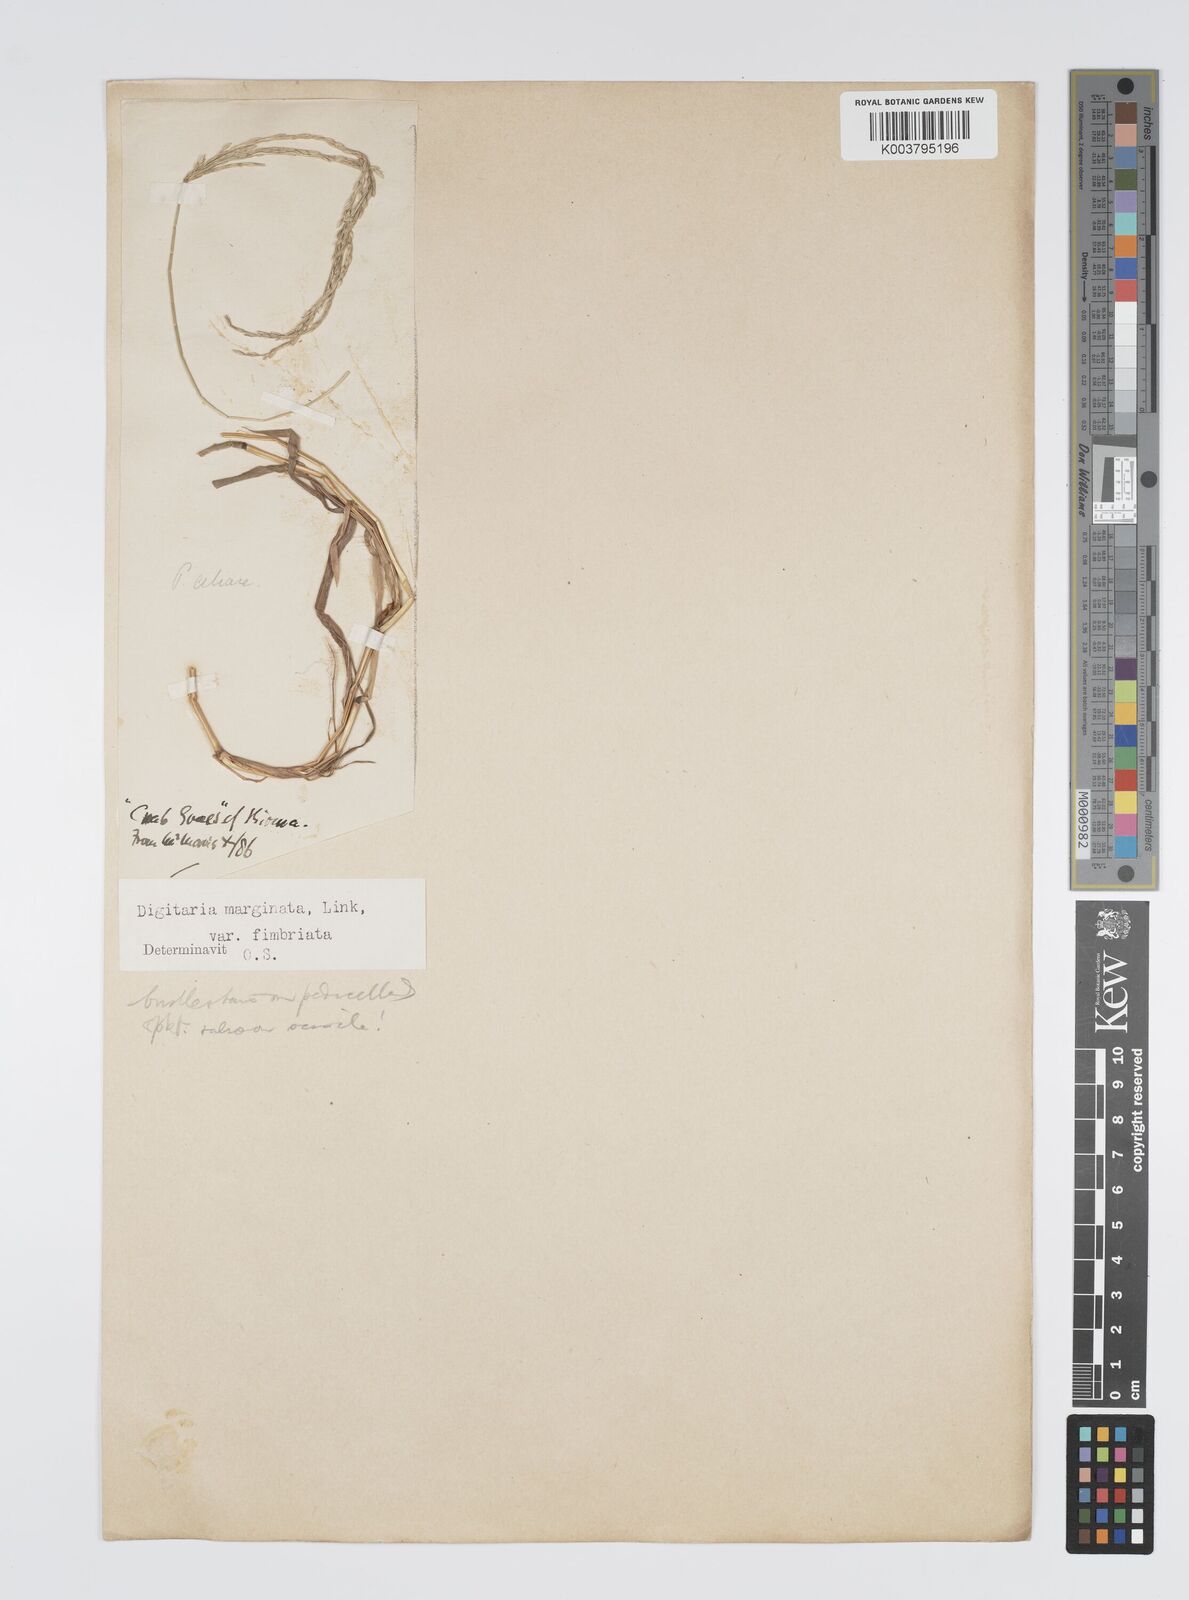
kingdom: Plantae
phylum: Tracheophyta
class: Liliopsida
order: Poales
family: Poaceae
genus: Digitaria
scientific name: Digitaria ciliaris
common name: Tropical finger-grass
